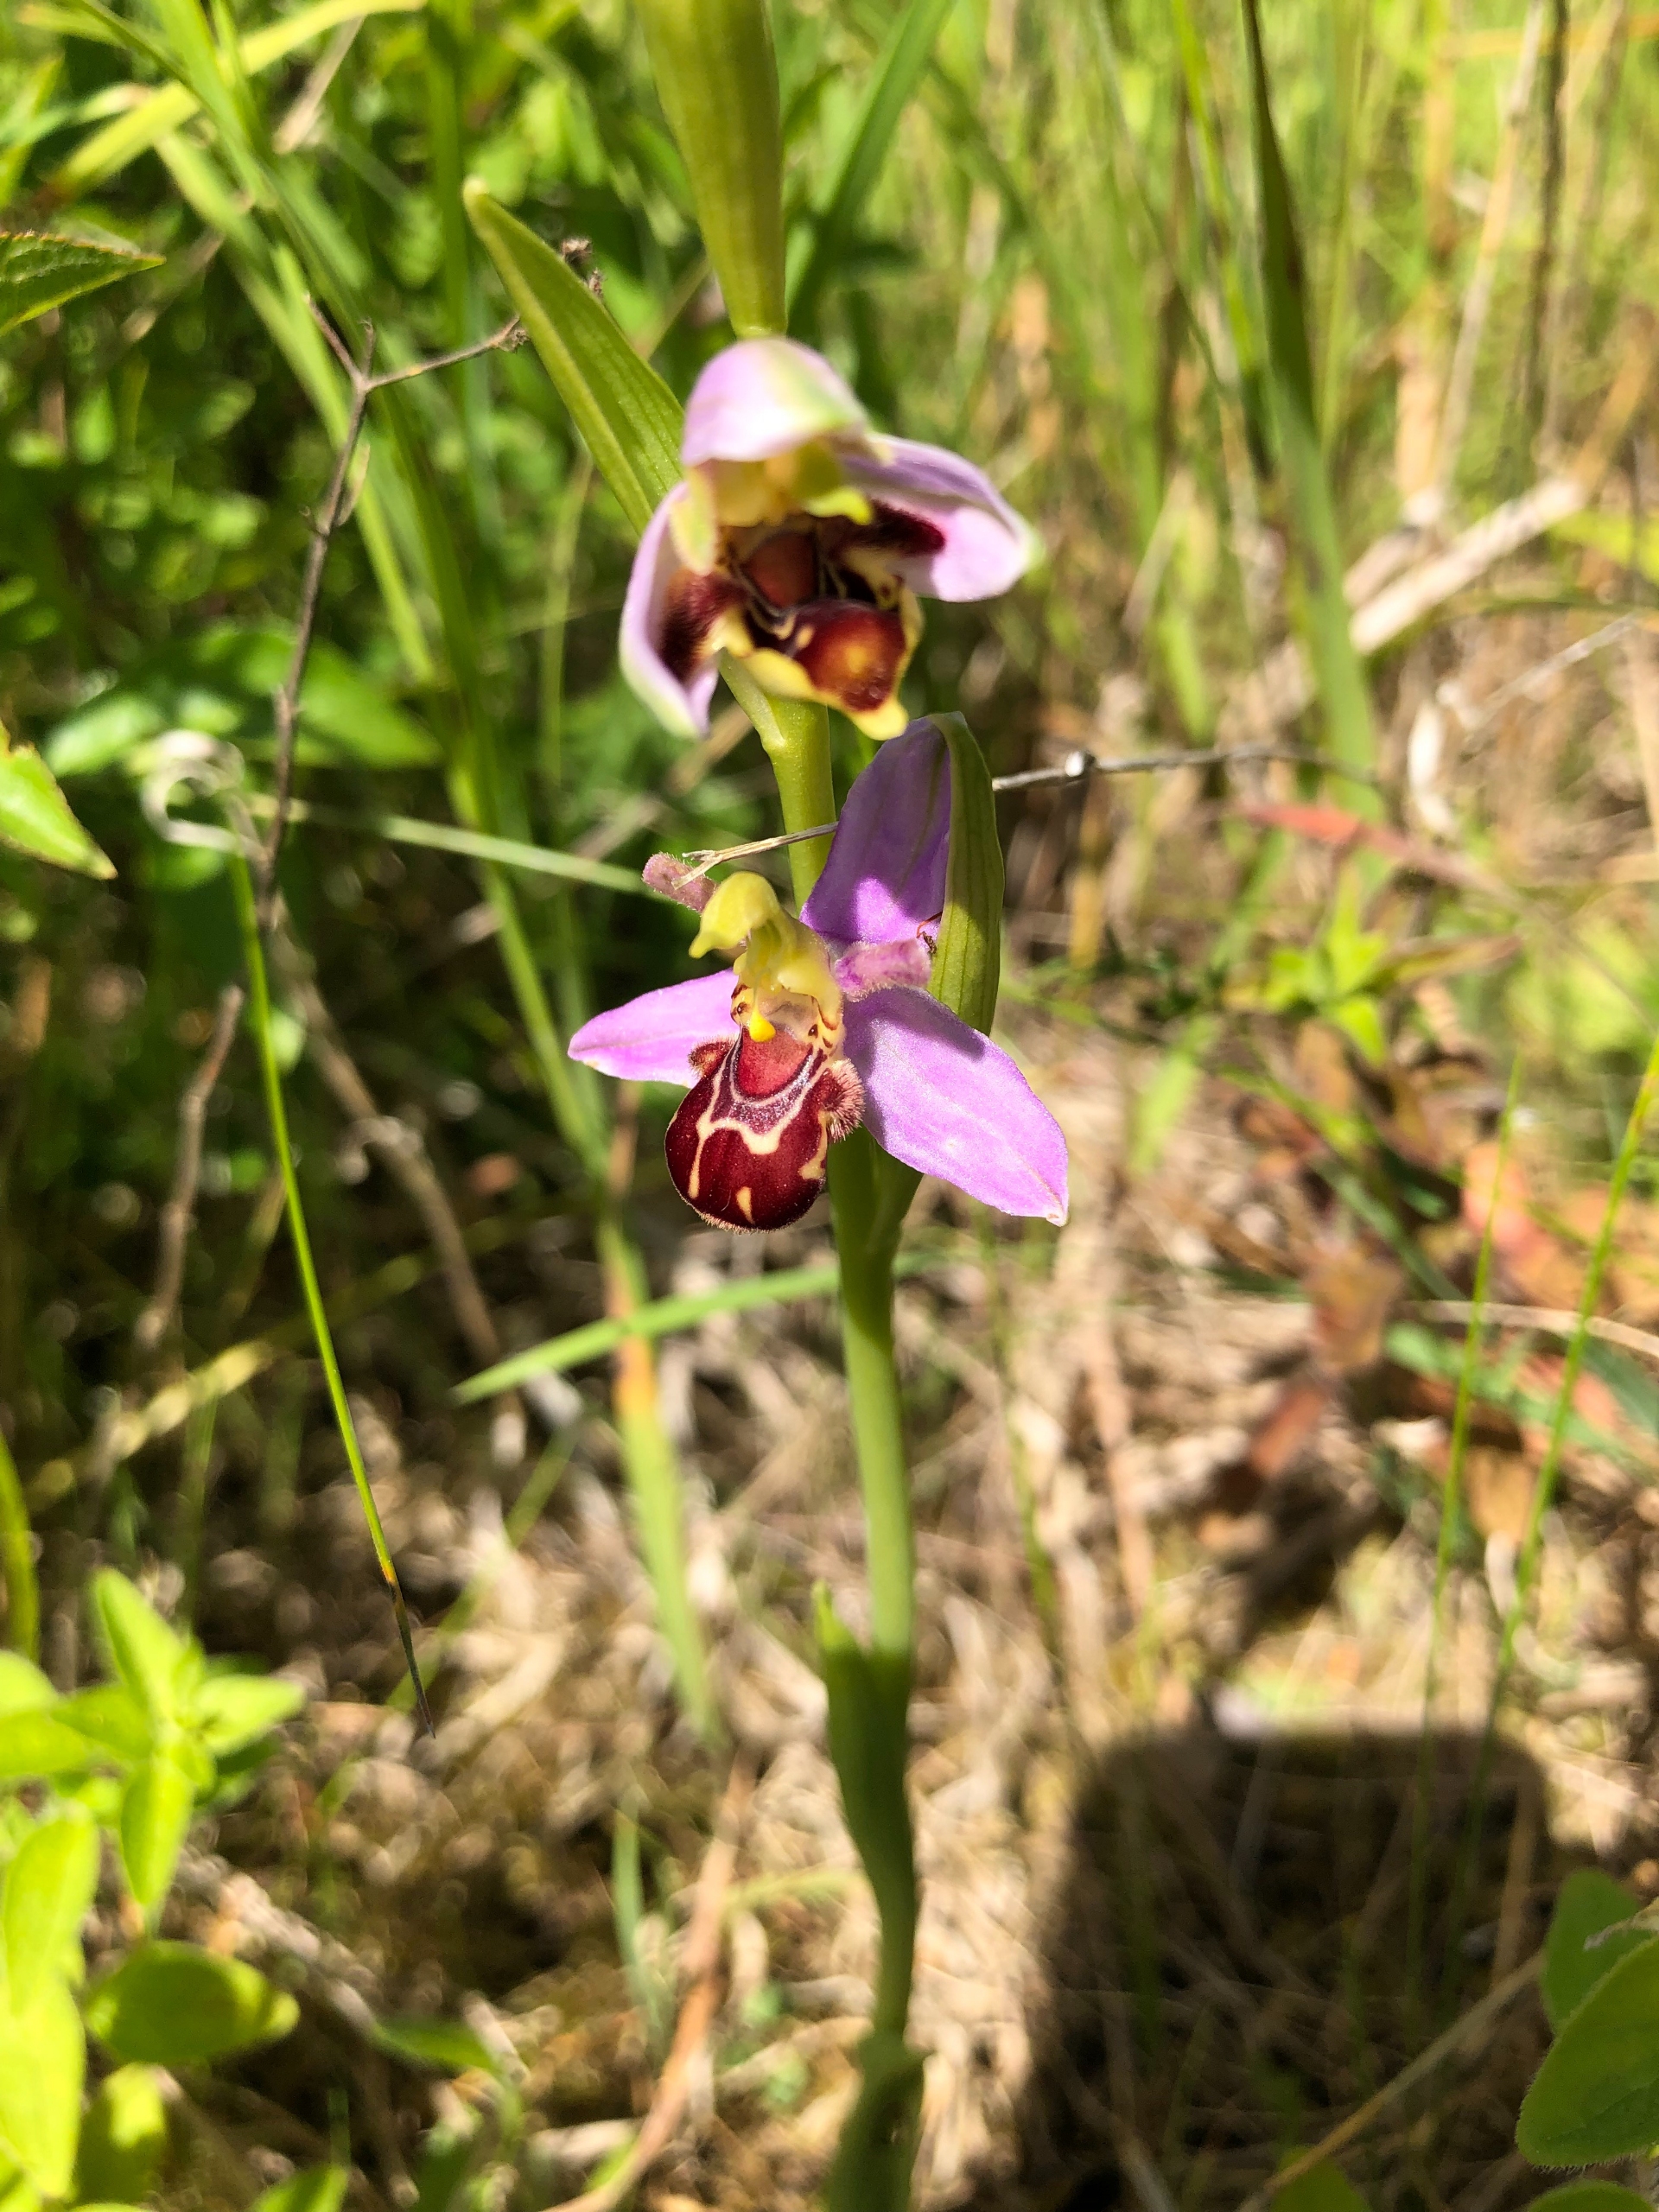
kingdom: Plantae
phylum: Tracheophyta
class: Liliopsida
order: Asparagales
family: Orchidaceae
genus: Ophrys
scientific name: Ophrys apifera
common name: Biblomst
